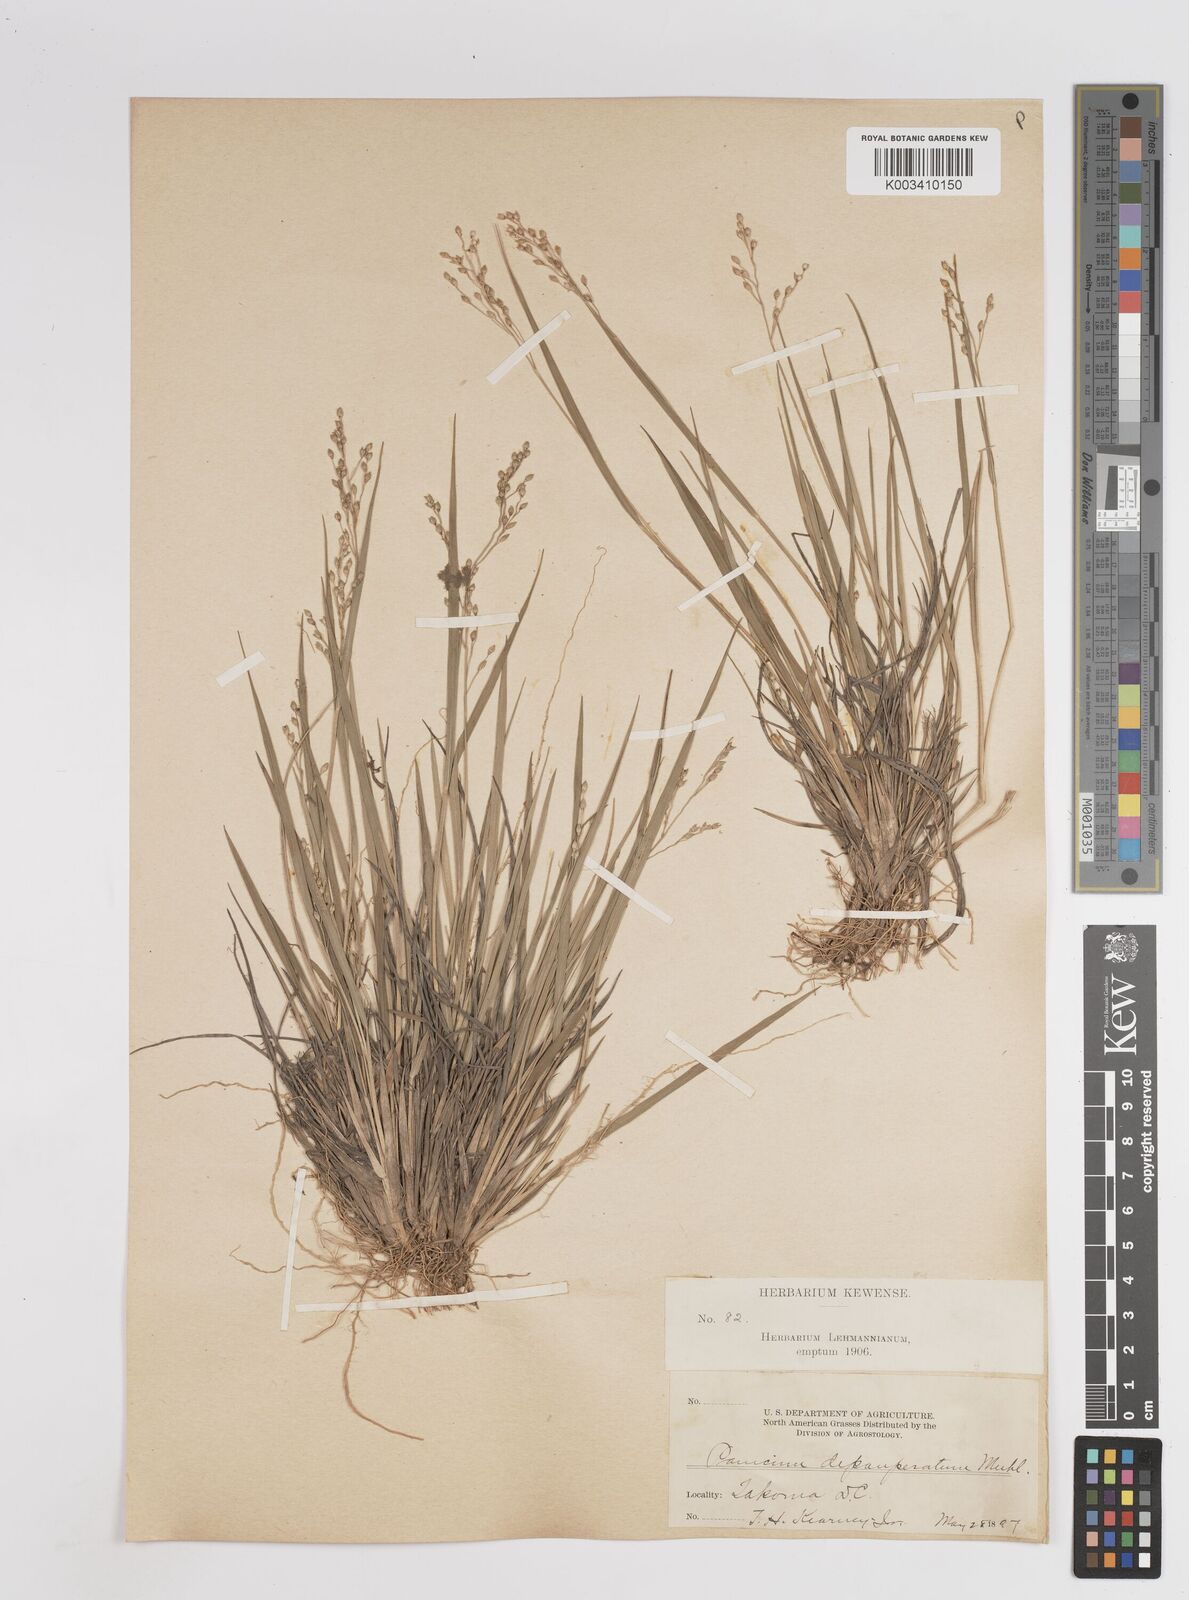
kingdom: Plantae
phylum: Tracheophyta
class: Liliopsida
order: Poales
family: Poaceae
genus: Dichanthelium
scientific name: Dichanthelium depauperatum
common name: Depauperate panicgrass
